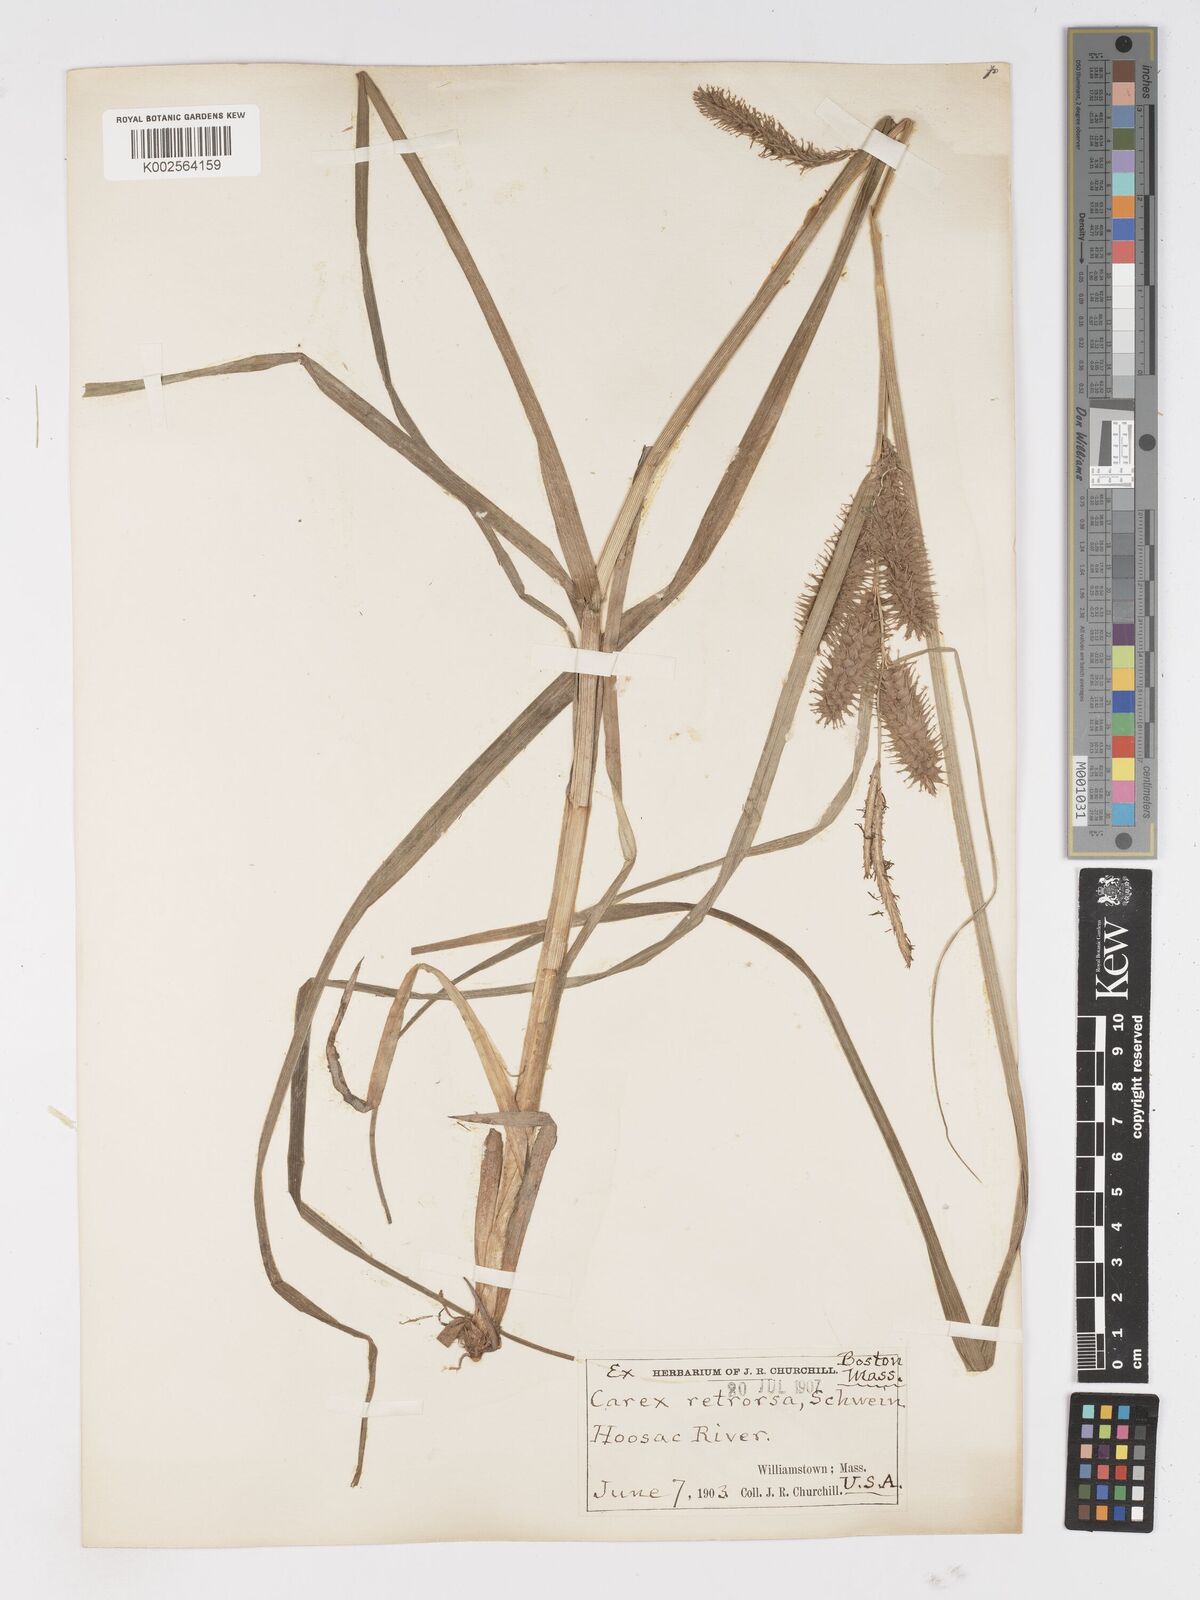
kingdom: Plantae
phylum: Tracheophyta
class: Liliopsida
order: Poales
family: Cyperaceae
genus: Carex
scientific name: Carex retrorsa
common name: Knot-sheath sedge
